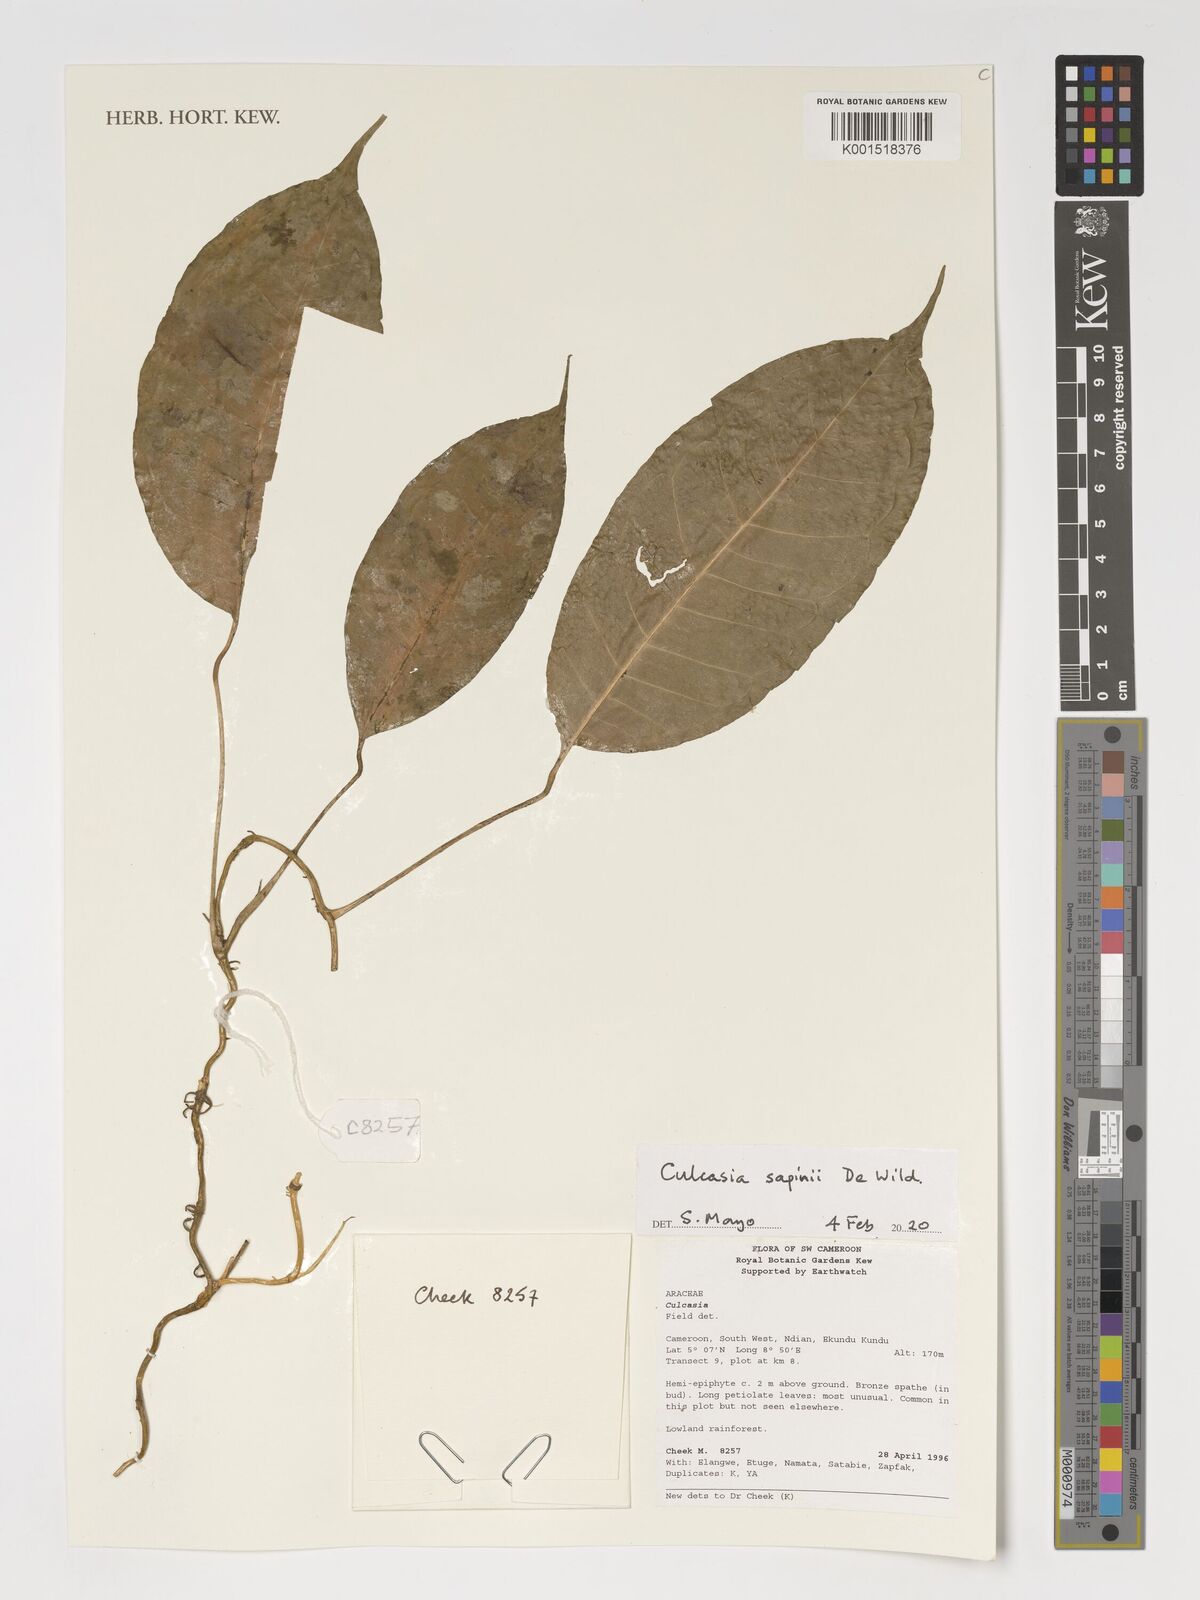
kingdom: Plantae
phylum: Tracheophyta
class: Liliopsida
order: Alismatales
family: Araceae
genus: Culcasia
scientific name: Culcasia seretii
